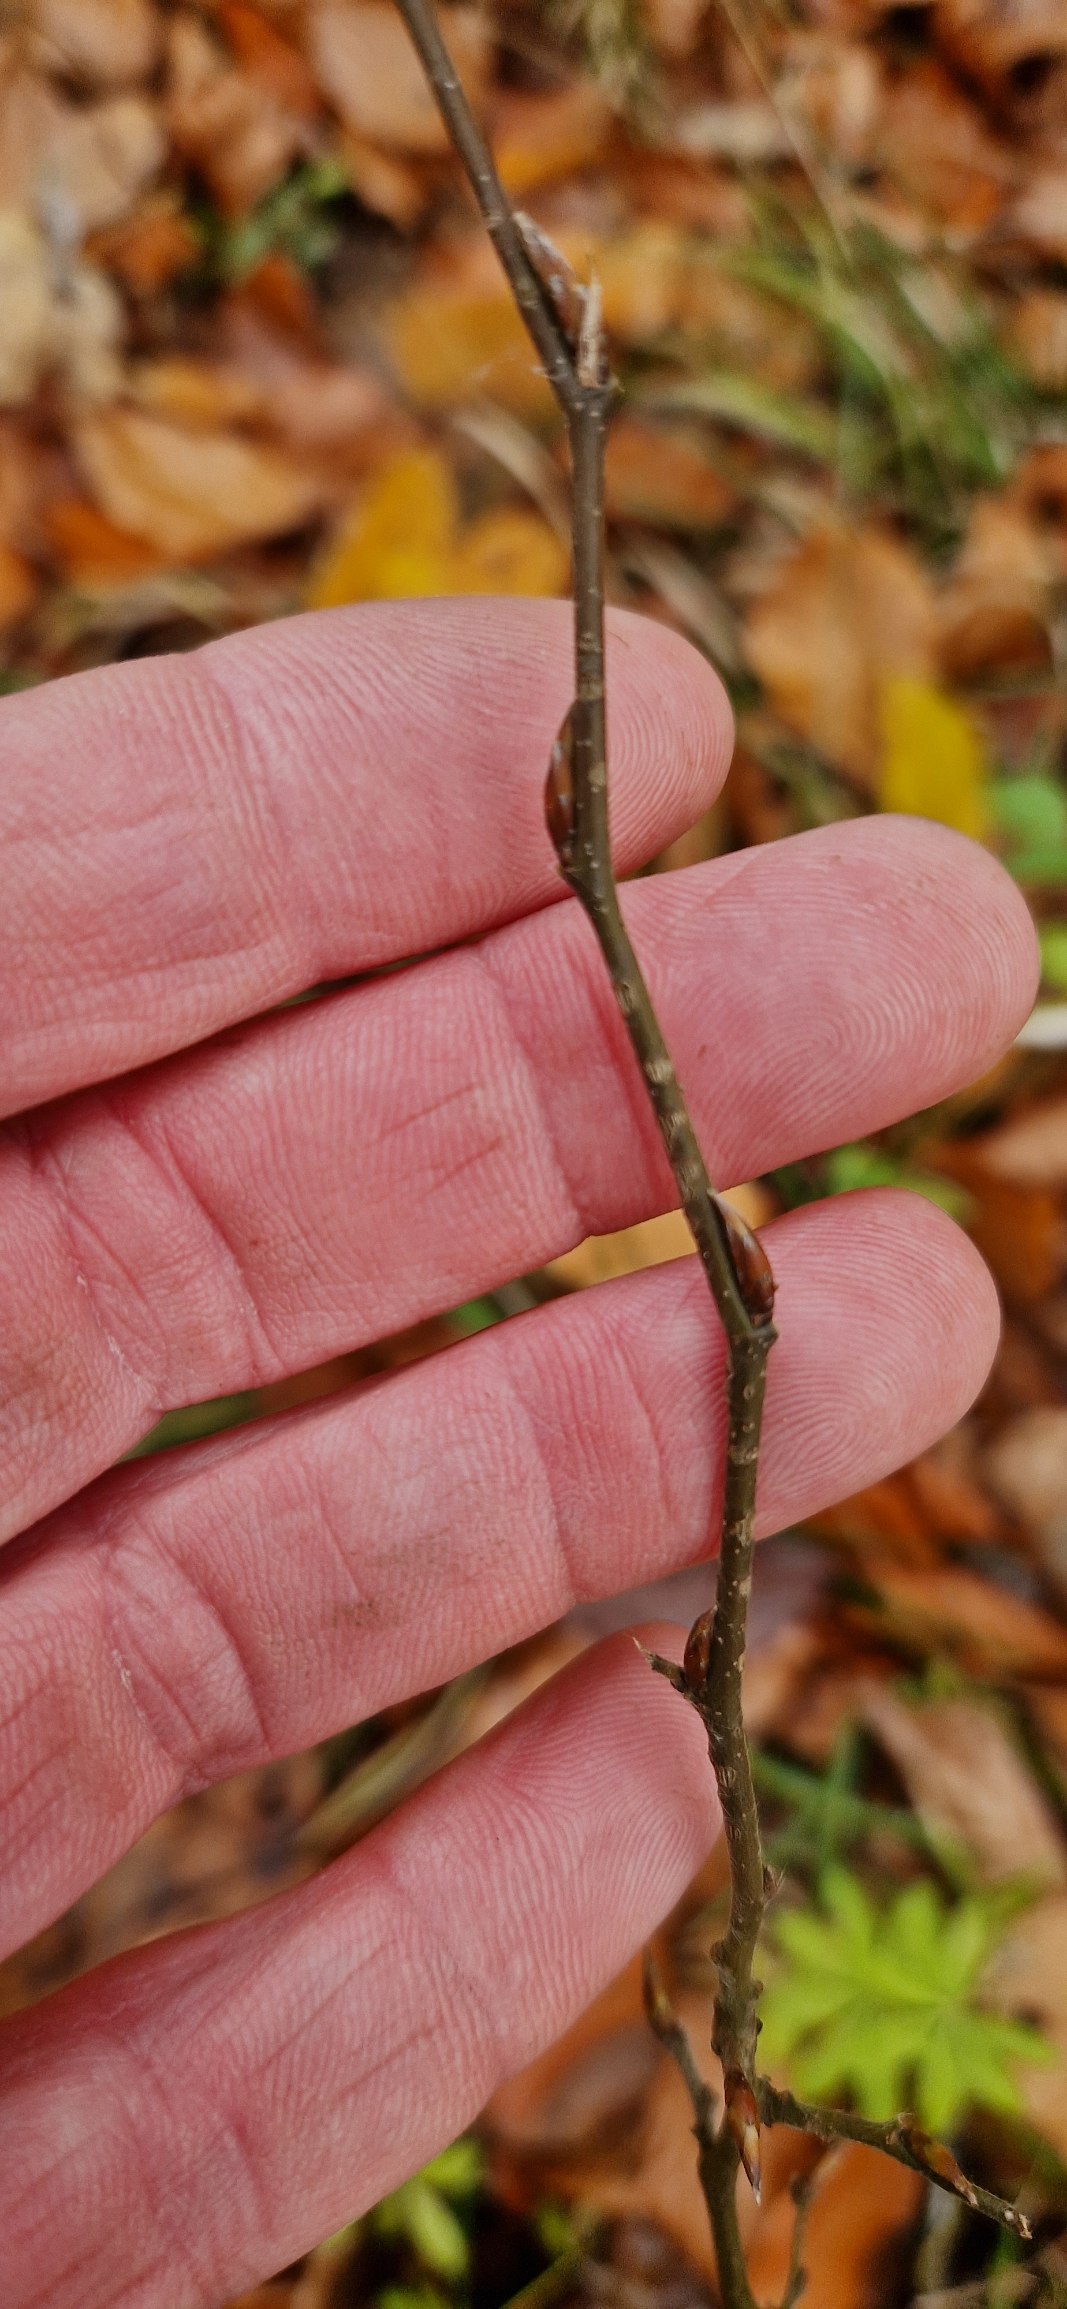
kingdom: Plantae
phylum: Tracheophyta
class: Magnoliopsida
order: Fagales
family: Betulaceae
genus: Carpinus
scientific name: Carpinus betulus
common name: Avnbøg
